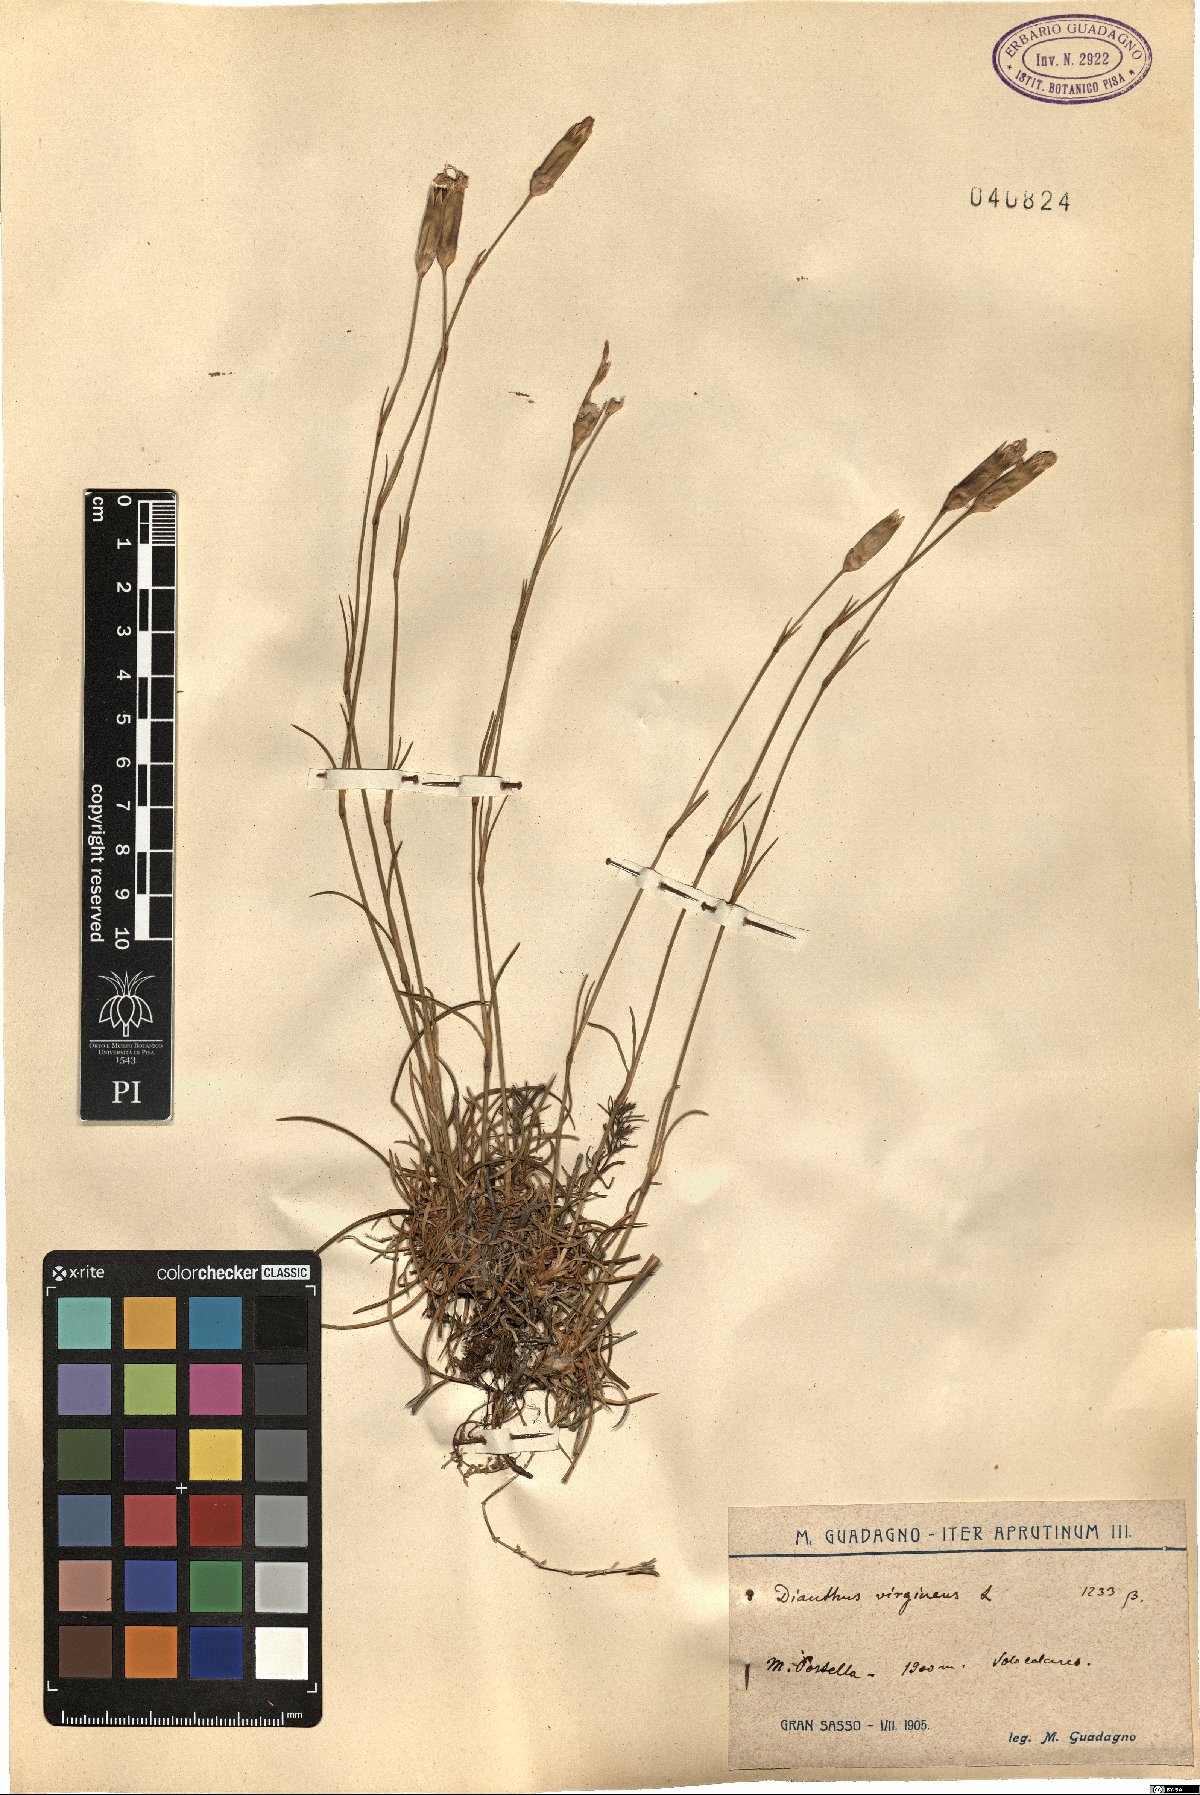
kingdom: Plantae
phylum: Tracheophyta
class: Magnoliopsida
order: Caryophyllales
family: Caryophyllaceae
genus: Dianthus
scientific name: Dianthus virgineus
